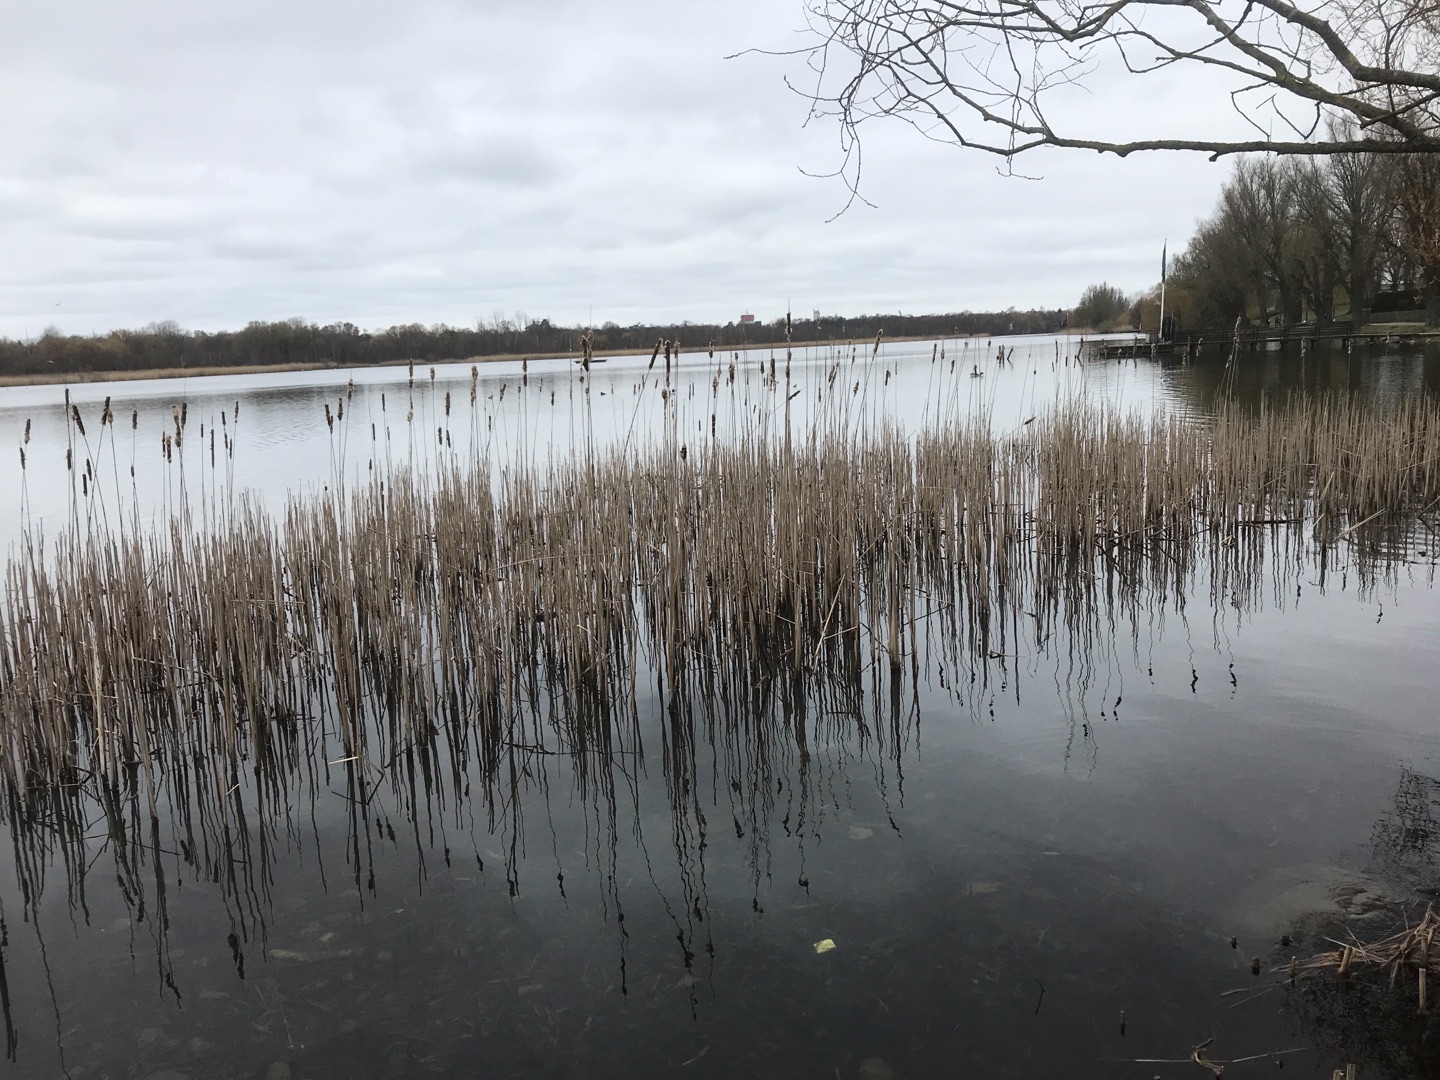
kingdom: Plantae
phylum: Tracheophyta
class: Liliopsida
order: Poales
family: Typhaceae
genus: Typha
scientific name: Typha latifolia
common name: Bredbladet dunhammer
